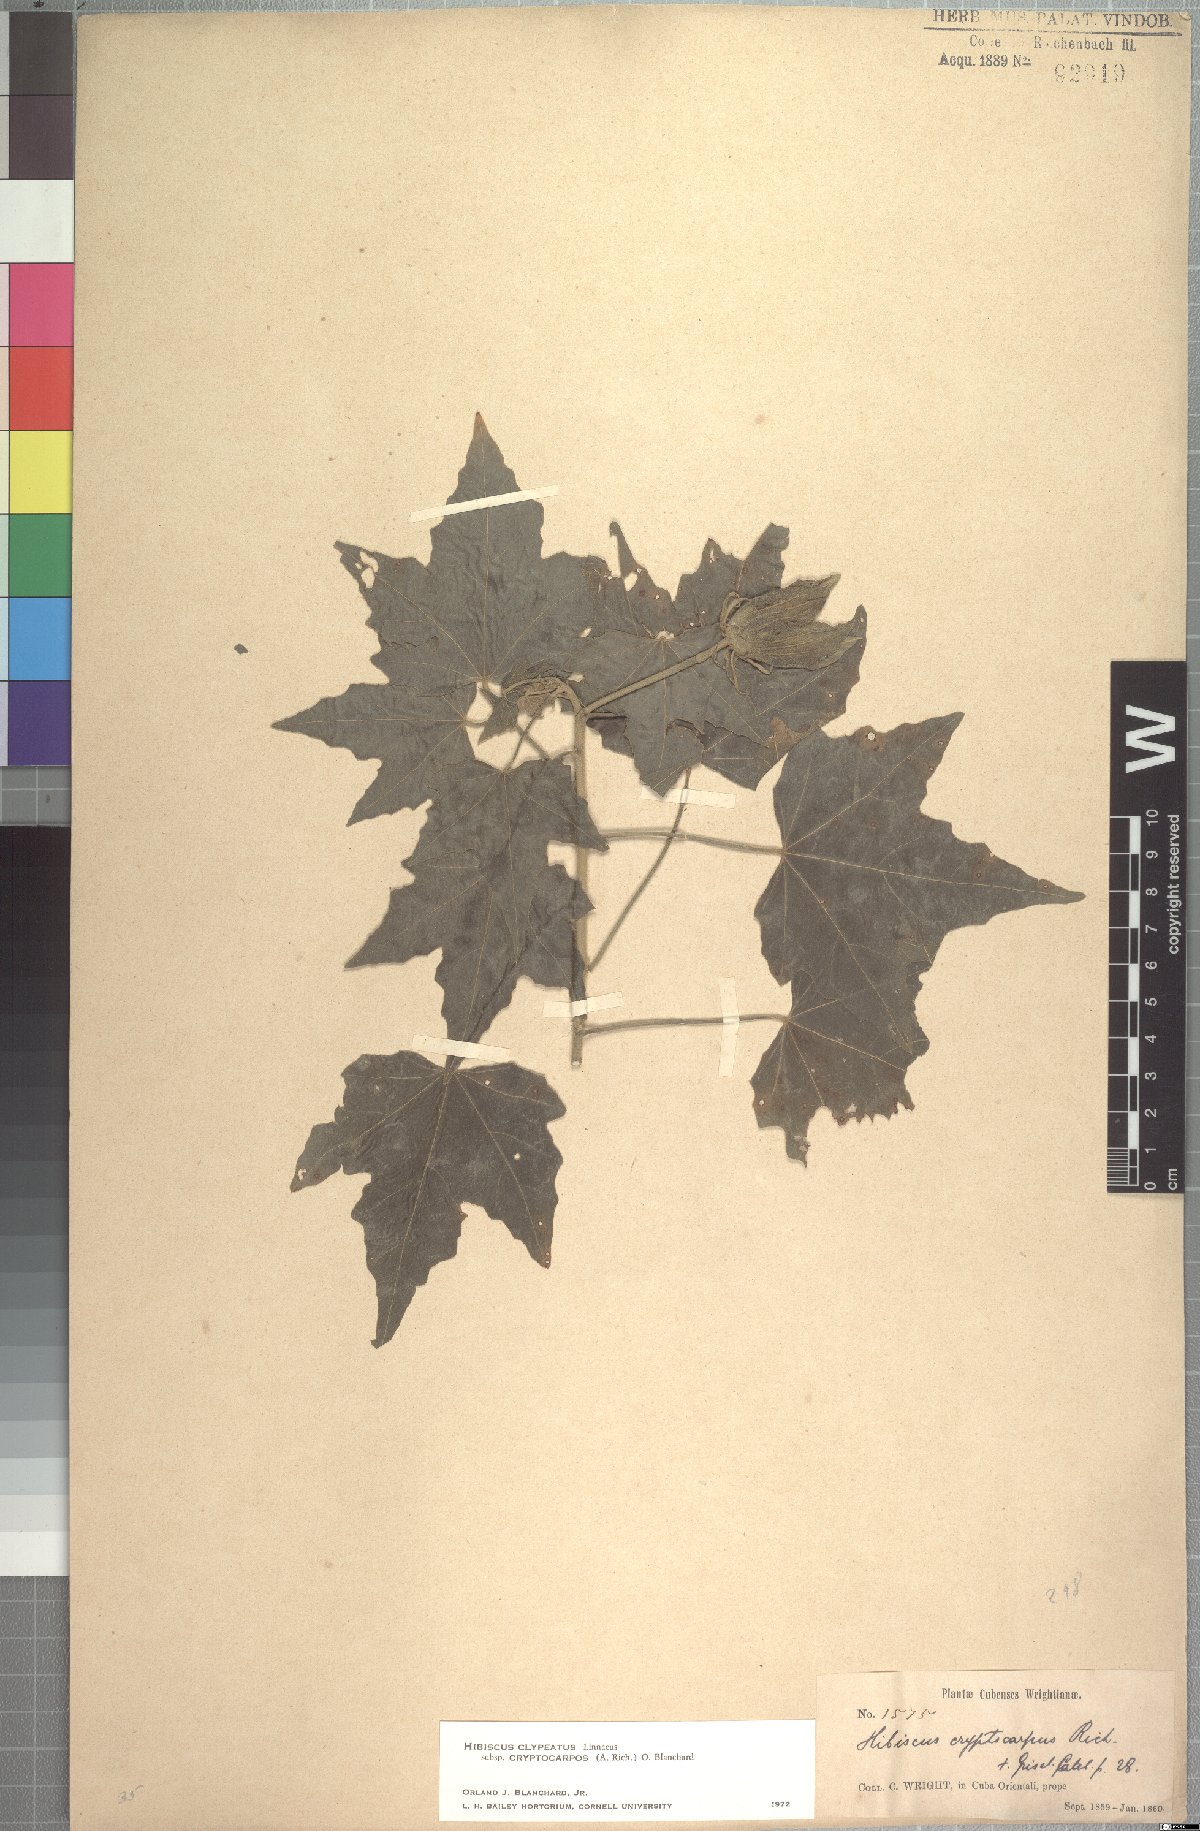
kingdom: Plantae
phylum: Tracheophyta
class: Magnoliopsida
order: Malvales
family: Malvaceae
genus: Hibiscus
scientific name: Hibiscus clypeatus
